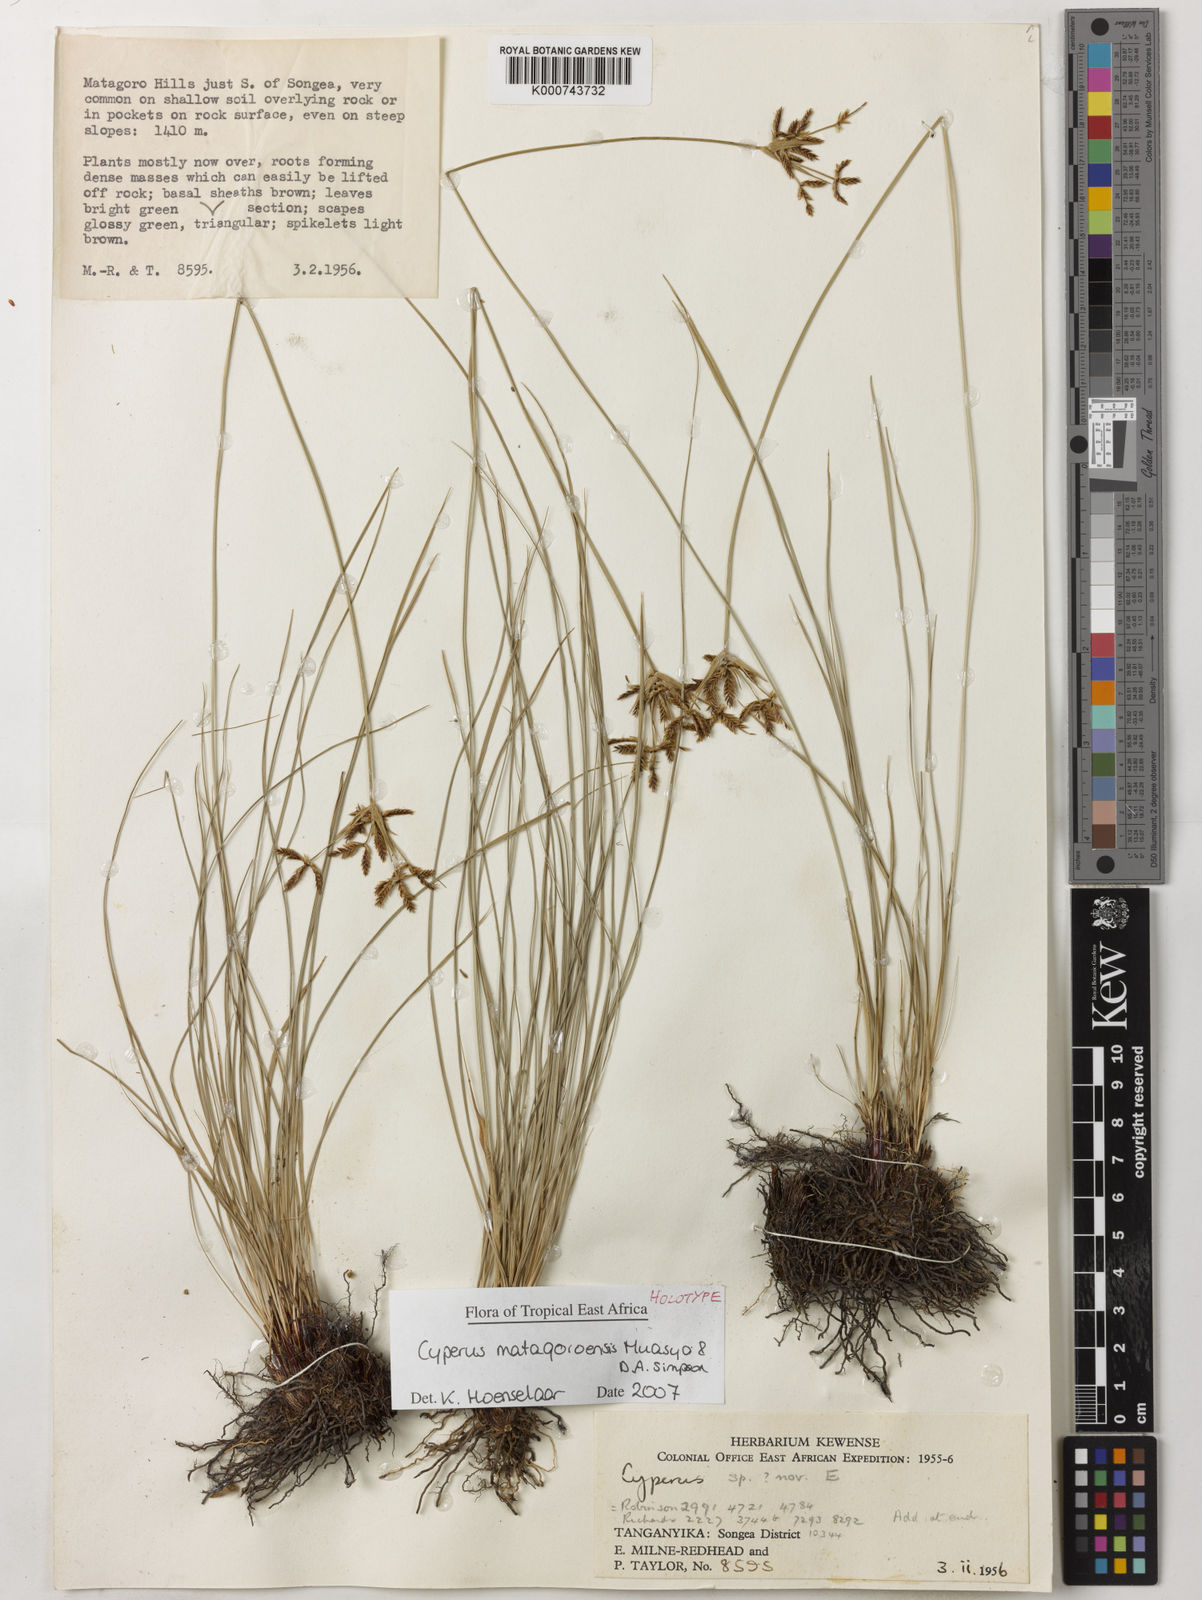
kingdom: Plantae
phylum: Tracheophyta
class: Liliopsida
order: Poales
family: Cyperaceae
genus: Cyperus
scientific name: Cyperus matagoroensis
